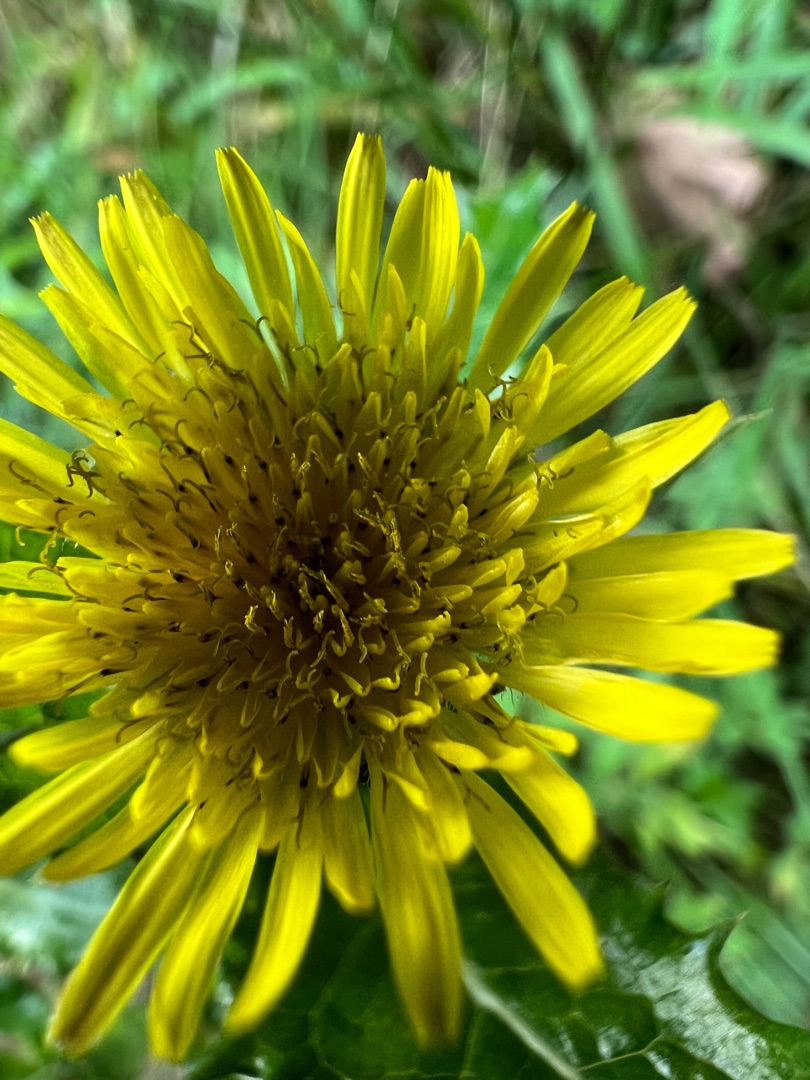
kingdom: Plantae
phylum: Tracheophyta
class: Magnoliopsida
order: Asterales
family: Asteraceae
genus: Sonchus
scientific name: Sonchus arvensis
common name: Ager-svinemælk
